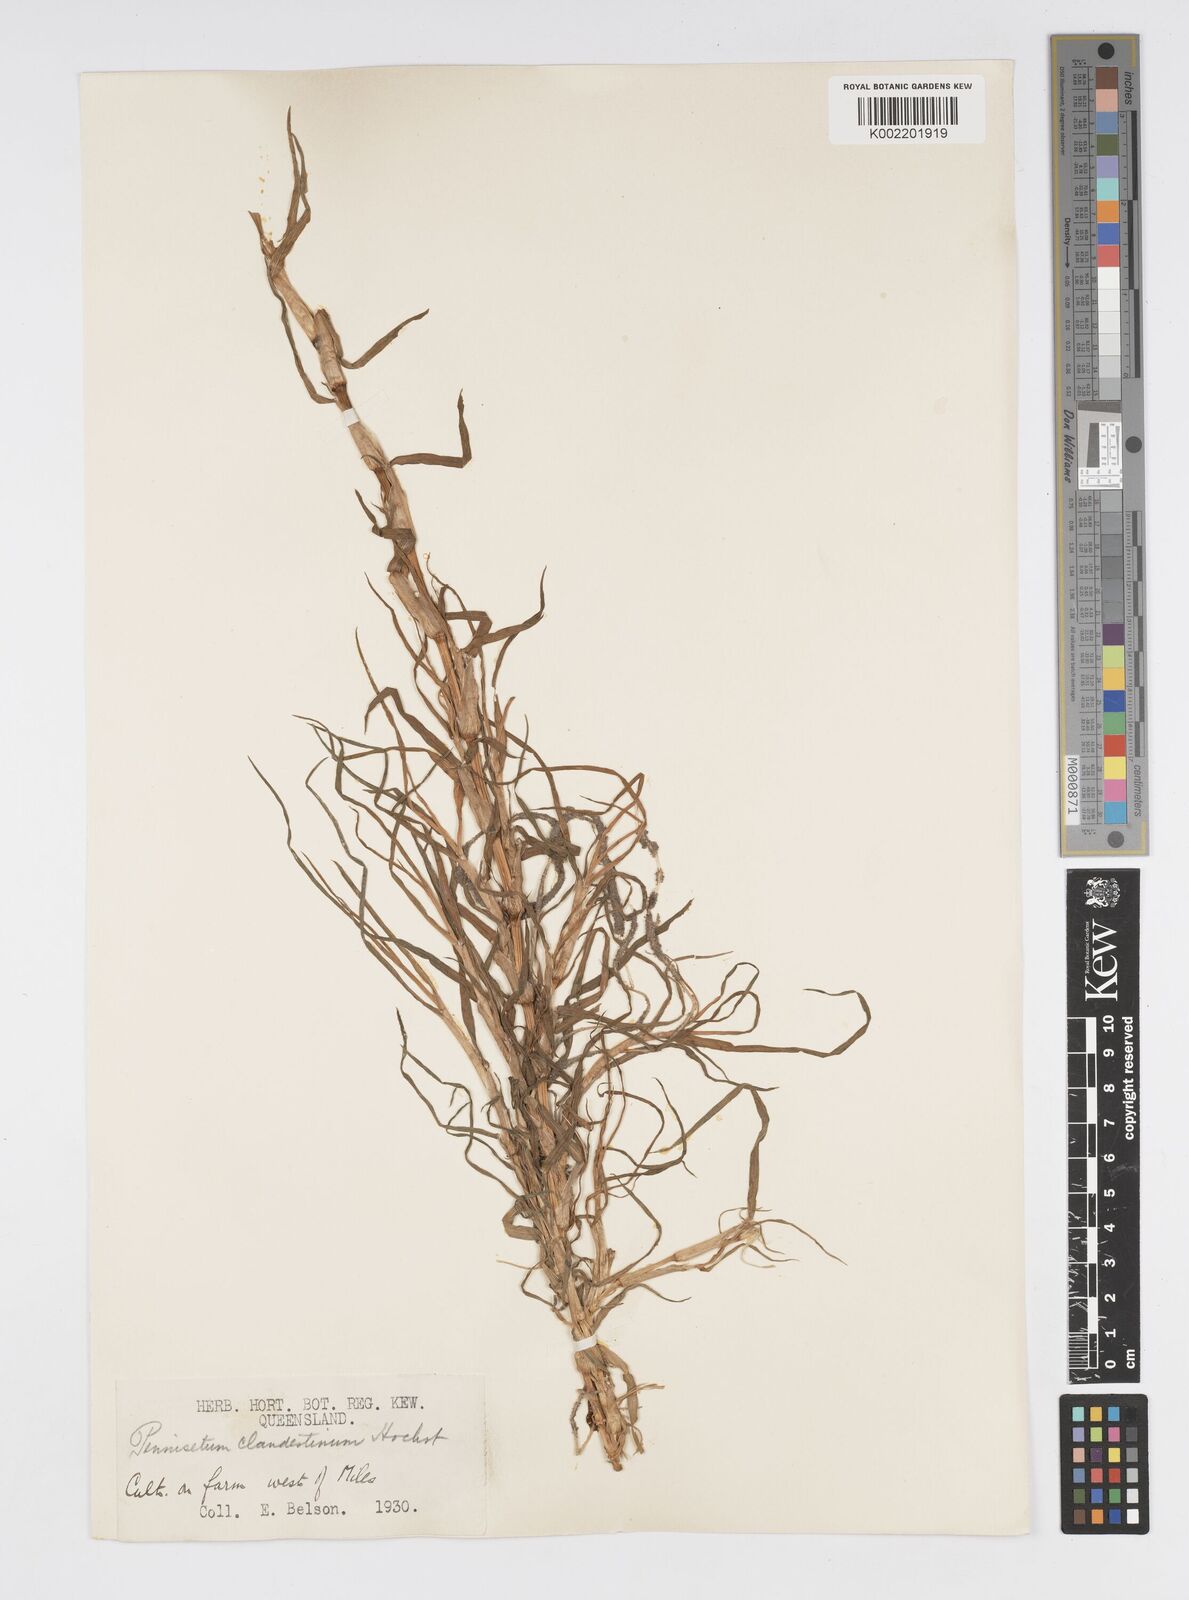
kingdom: Plantae
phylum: Tracheophyta
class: Liliopsida
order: Poales
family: Poaceae
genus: Cenchrus
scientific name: Cenchrus clandestinus
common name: Kikuyugrass
